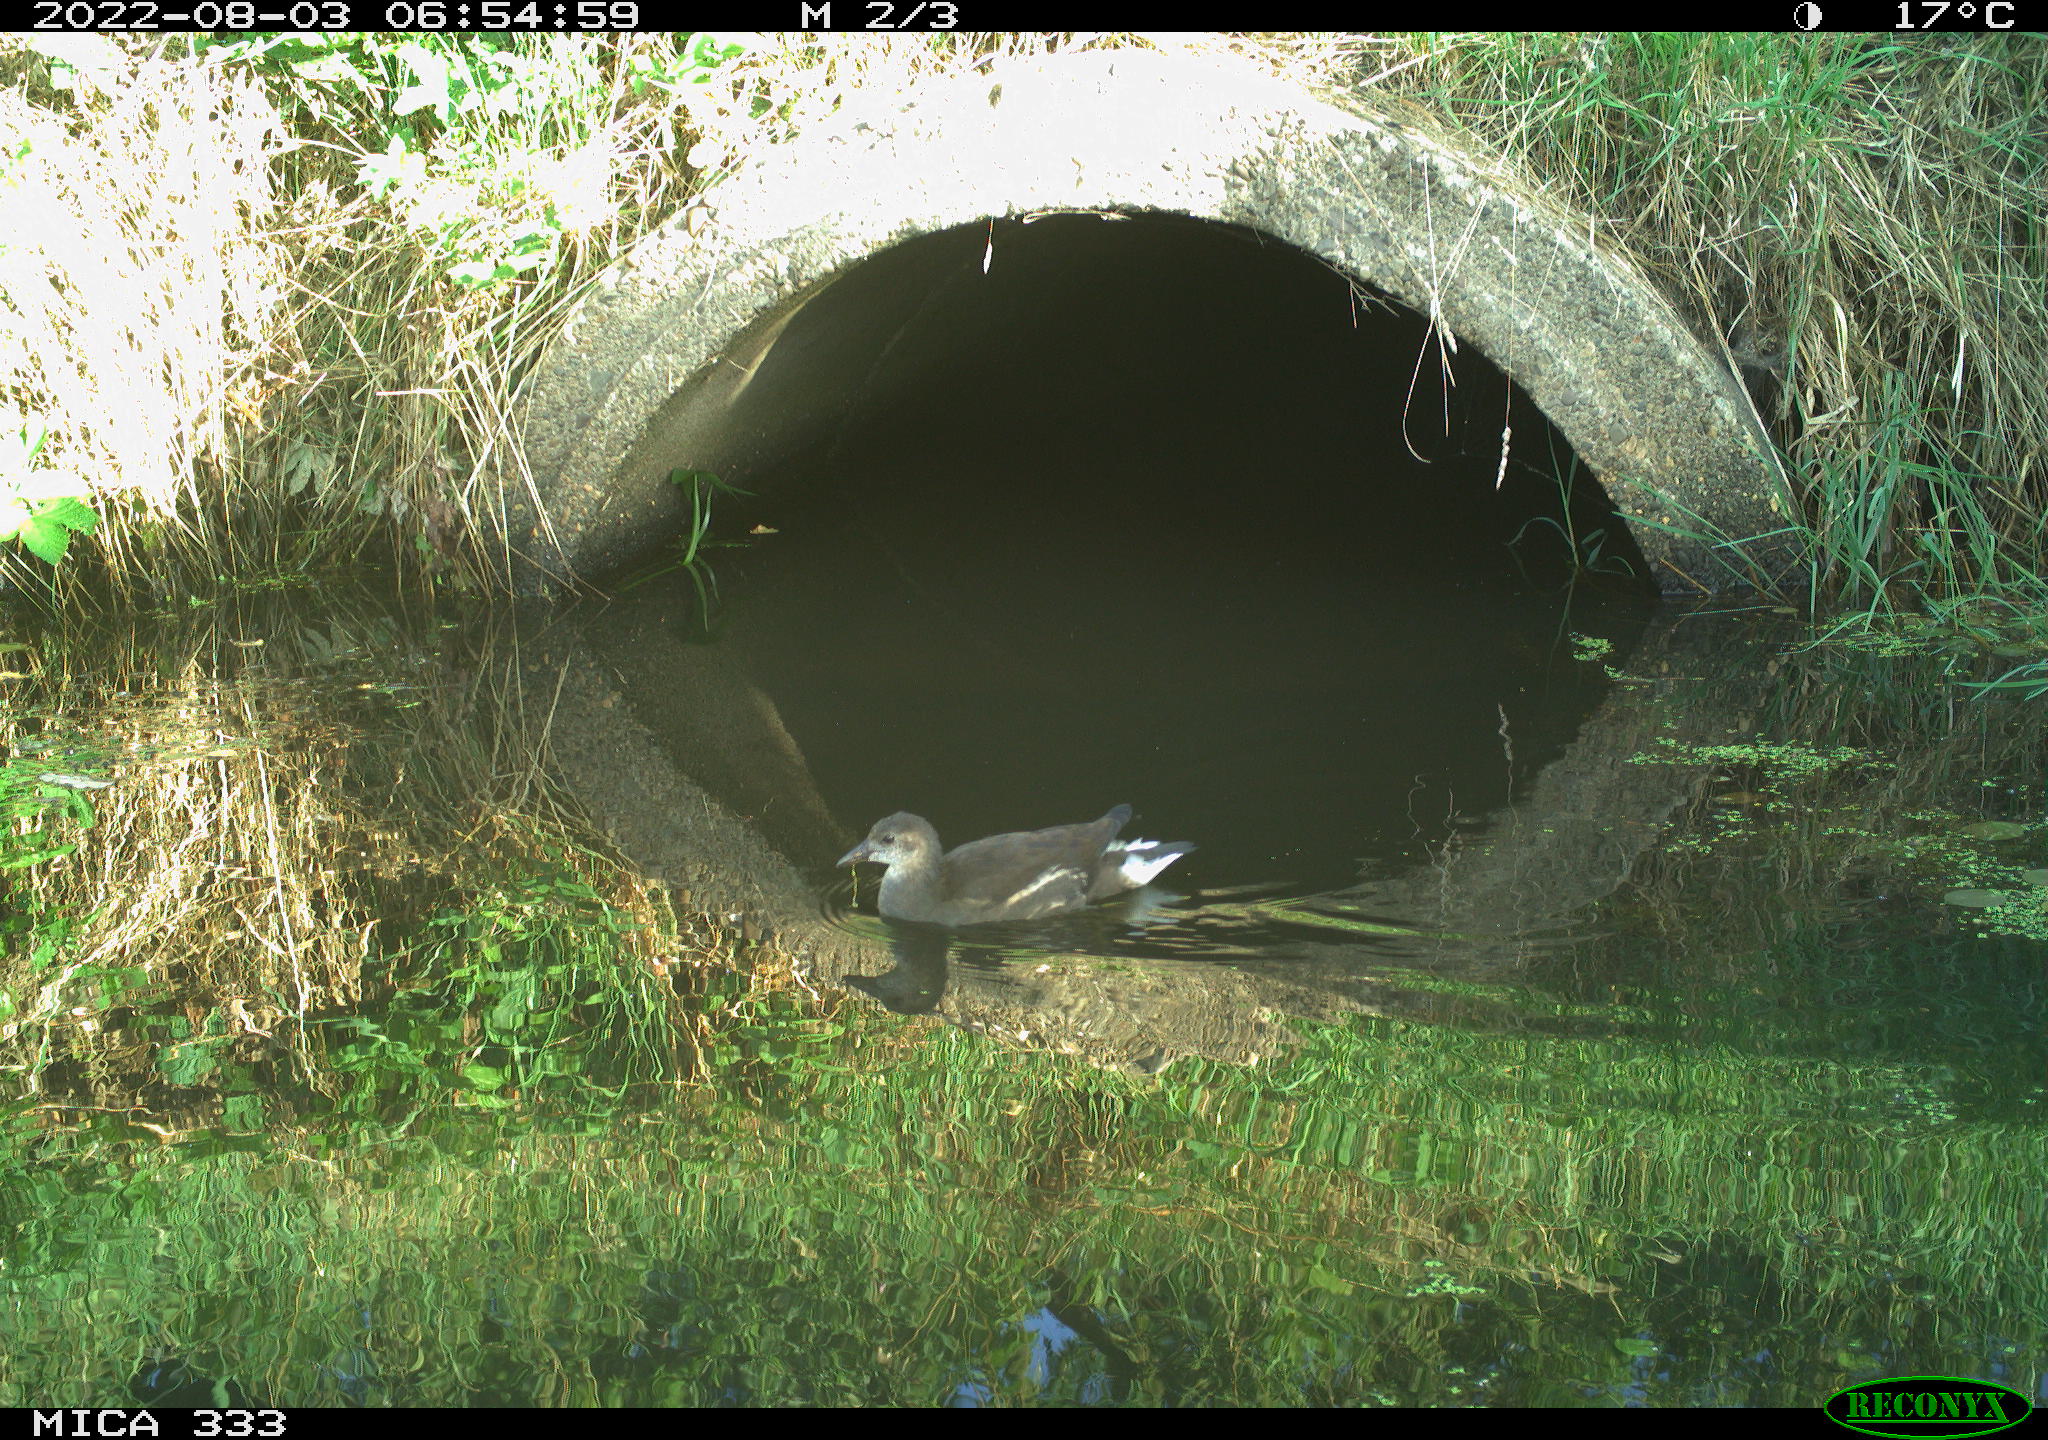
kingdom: Animalia
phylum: Chordata
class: Aves
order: Gruiformes
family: Rallidae
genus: Gallinula
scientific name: Gallinula chloropus
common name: Common moorhen
